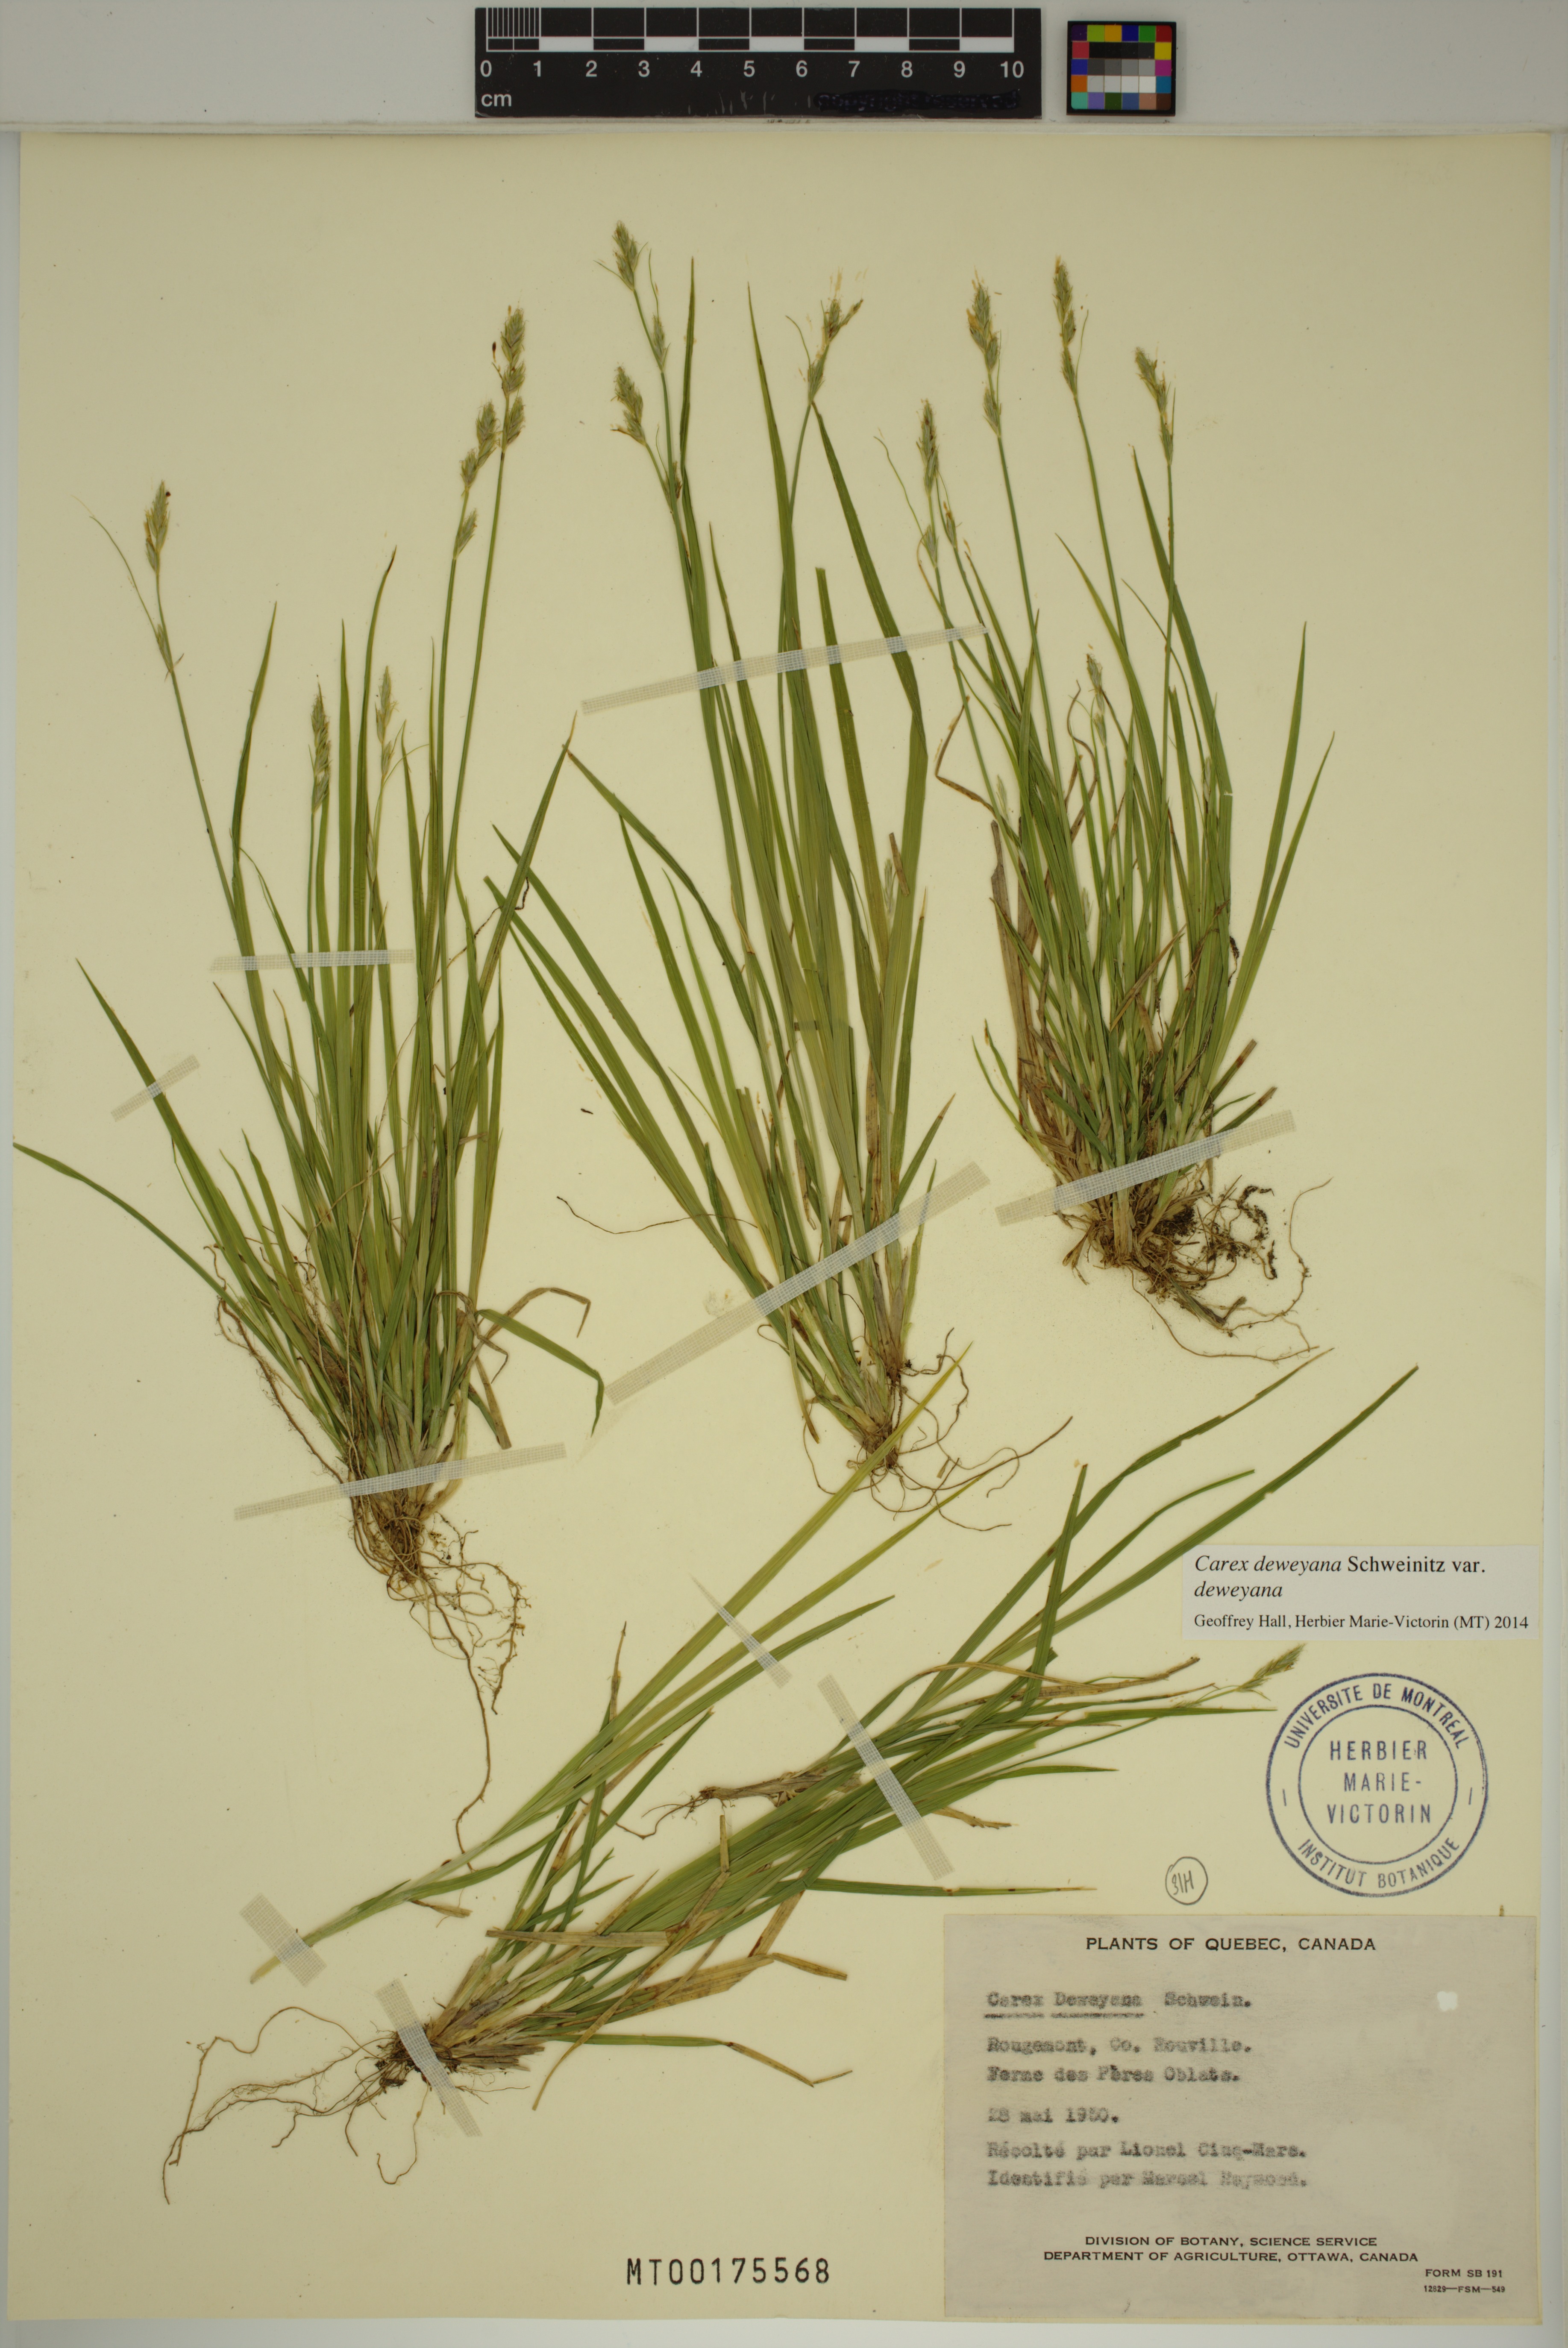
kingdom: Plantae
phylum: Tracheophyta
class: Liliopsida
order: Poales
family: Cyperaceae
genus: Carex
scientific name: Carex deweyana
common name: Dewey's sedge
